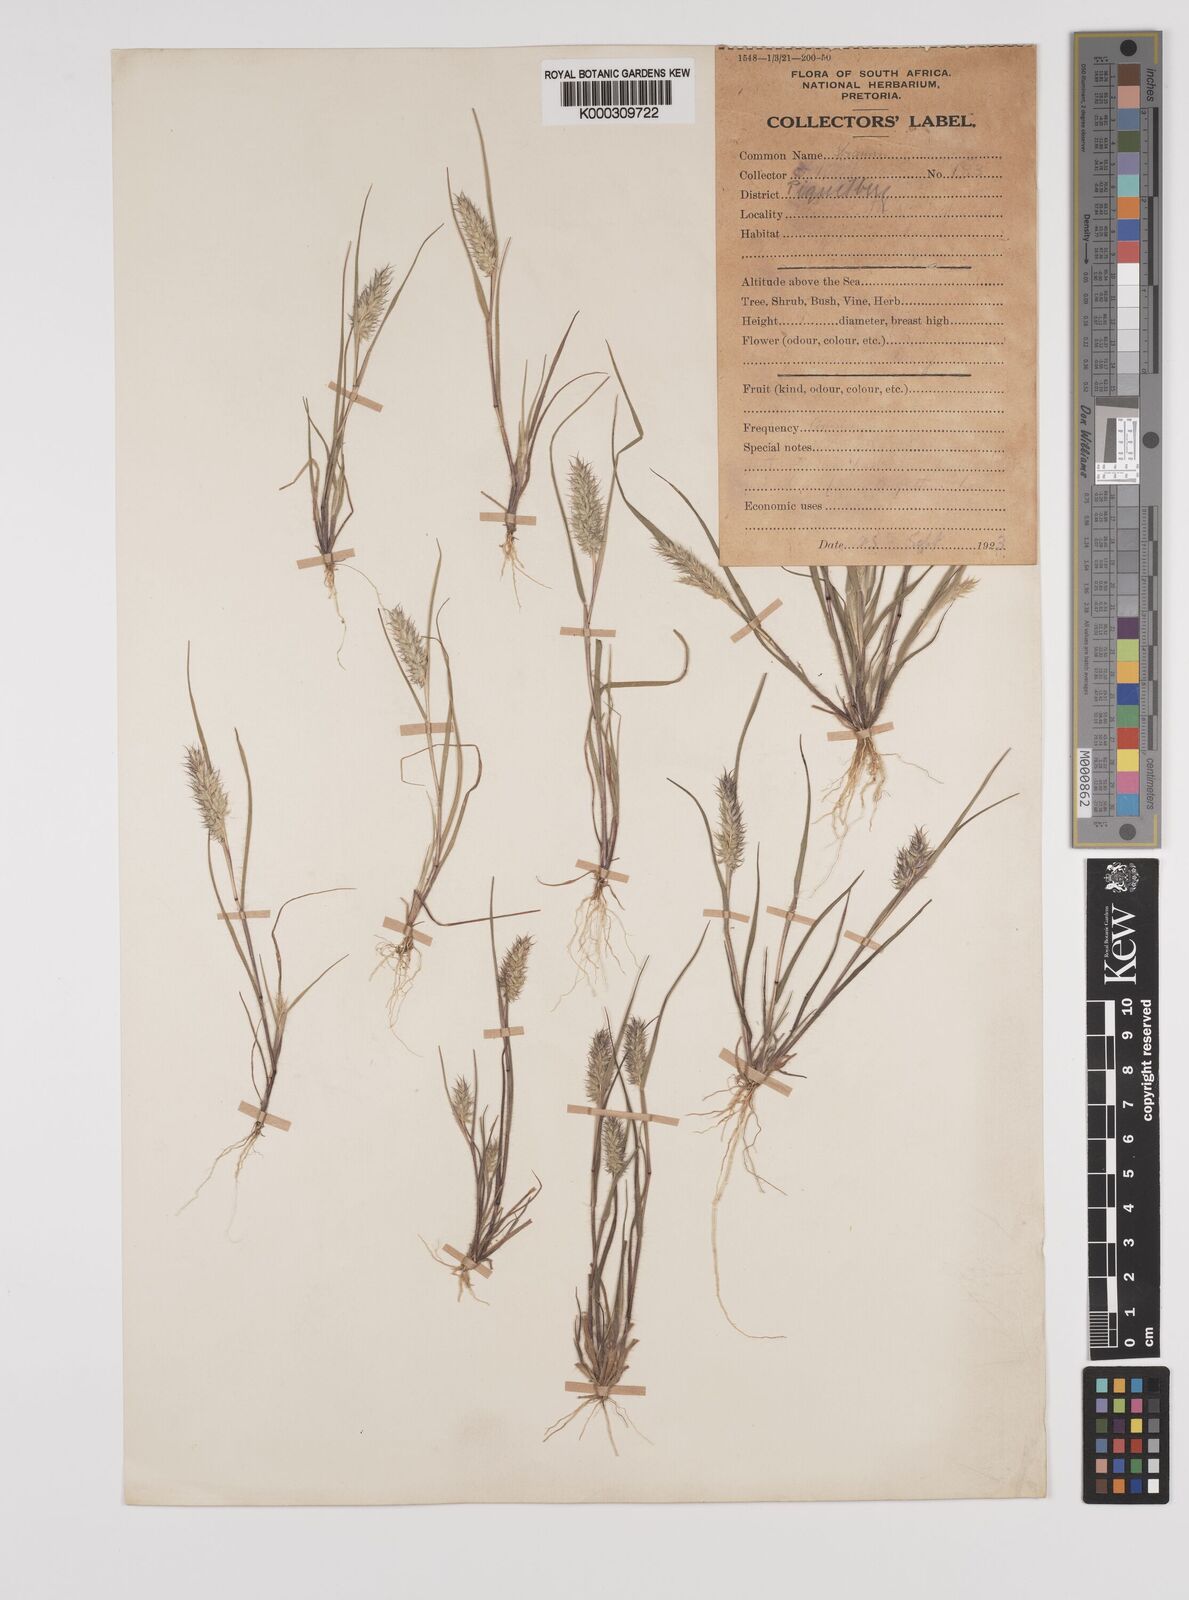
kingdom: Plantae
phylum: Tracheophyta
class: Liliopsida
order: Poales
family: Poaceae
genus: Tribolium
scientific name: Tribolium echinatum
